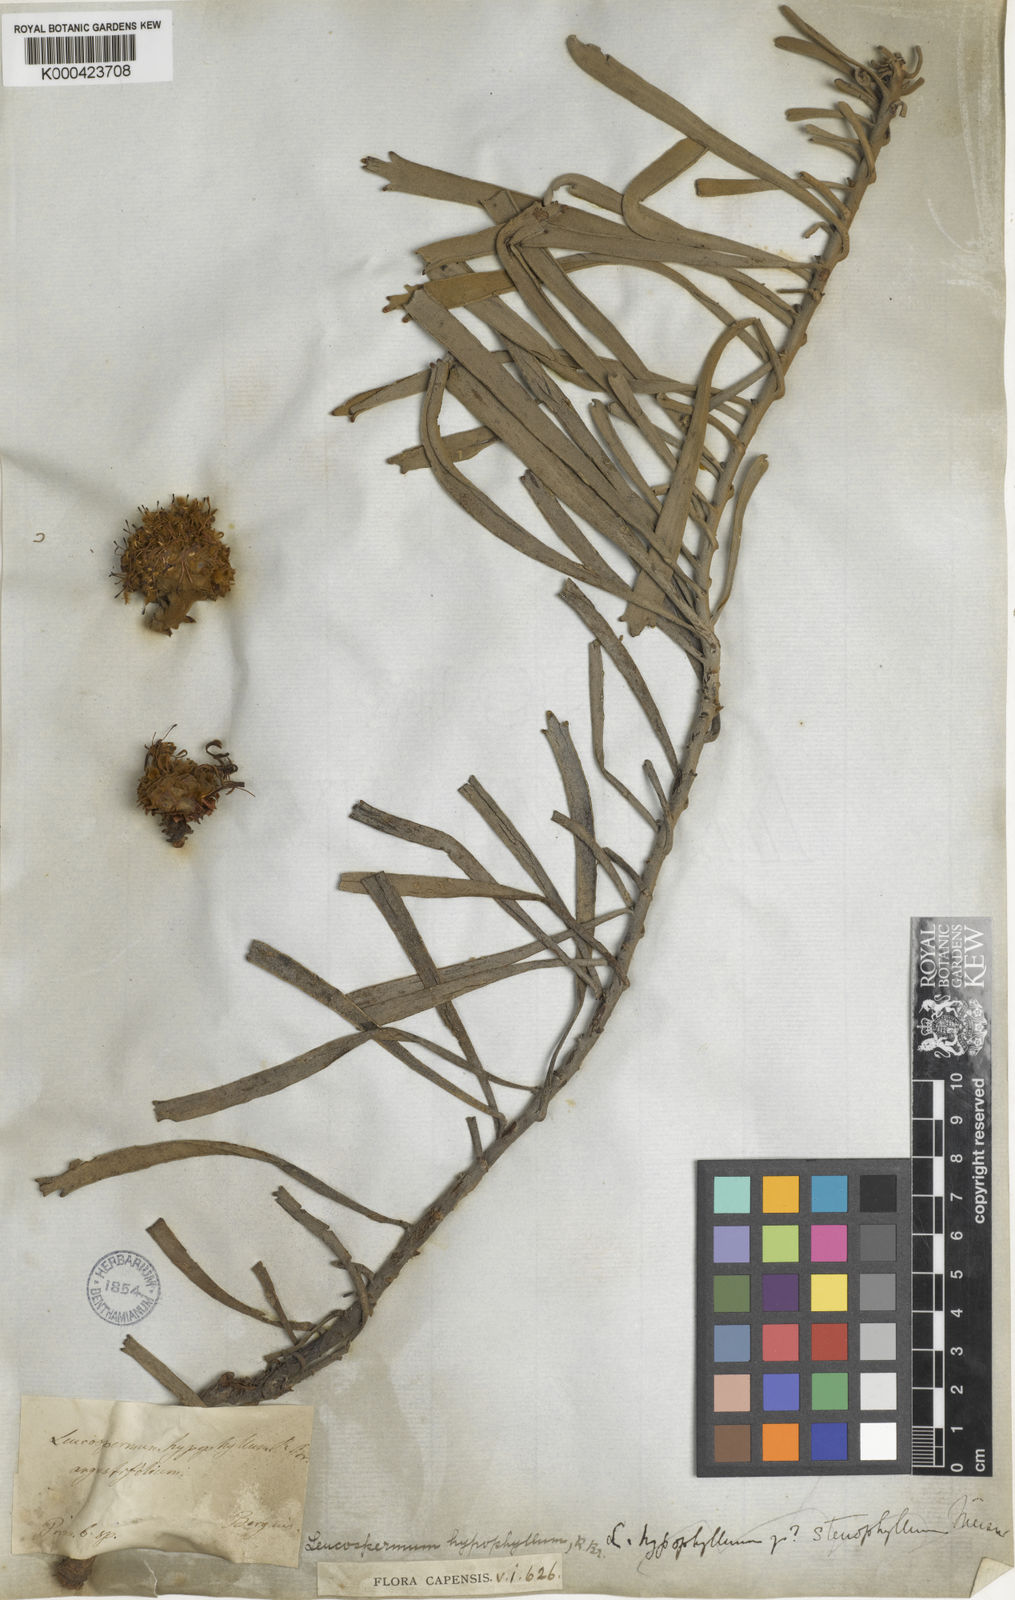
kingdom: Plantae
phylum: Tracheophyta
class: Magnoliopsida
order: Proteales
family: Proteaceae
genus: Leucospermum
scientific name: Leucospermum hypophyllocarpodendron
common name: Snakestem pincushion
